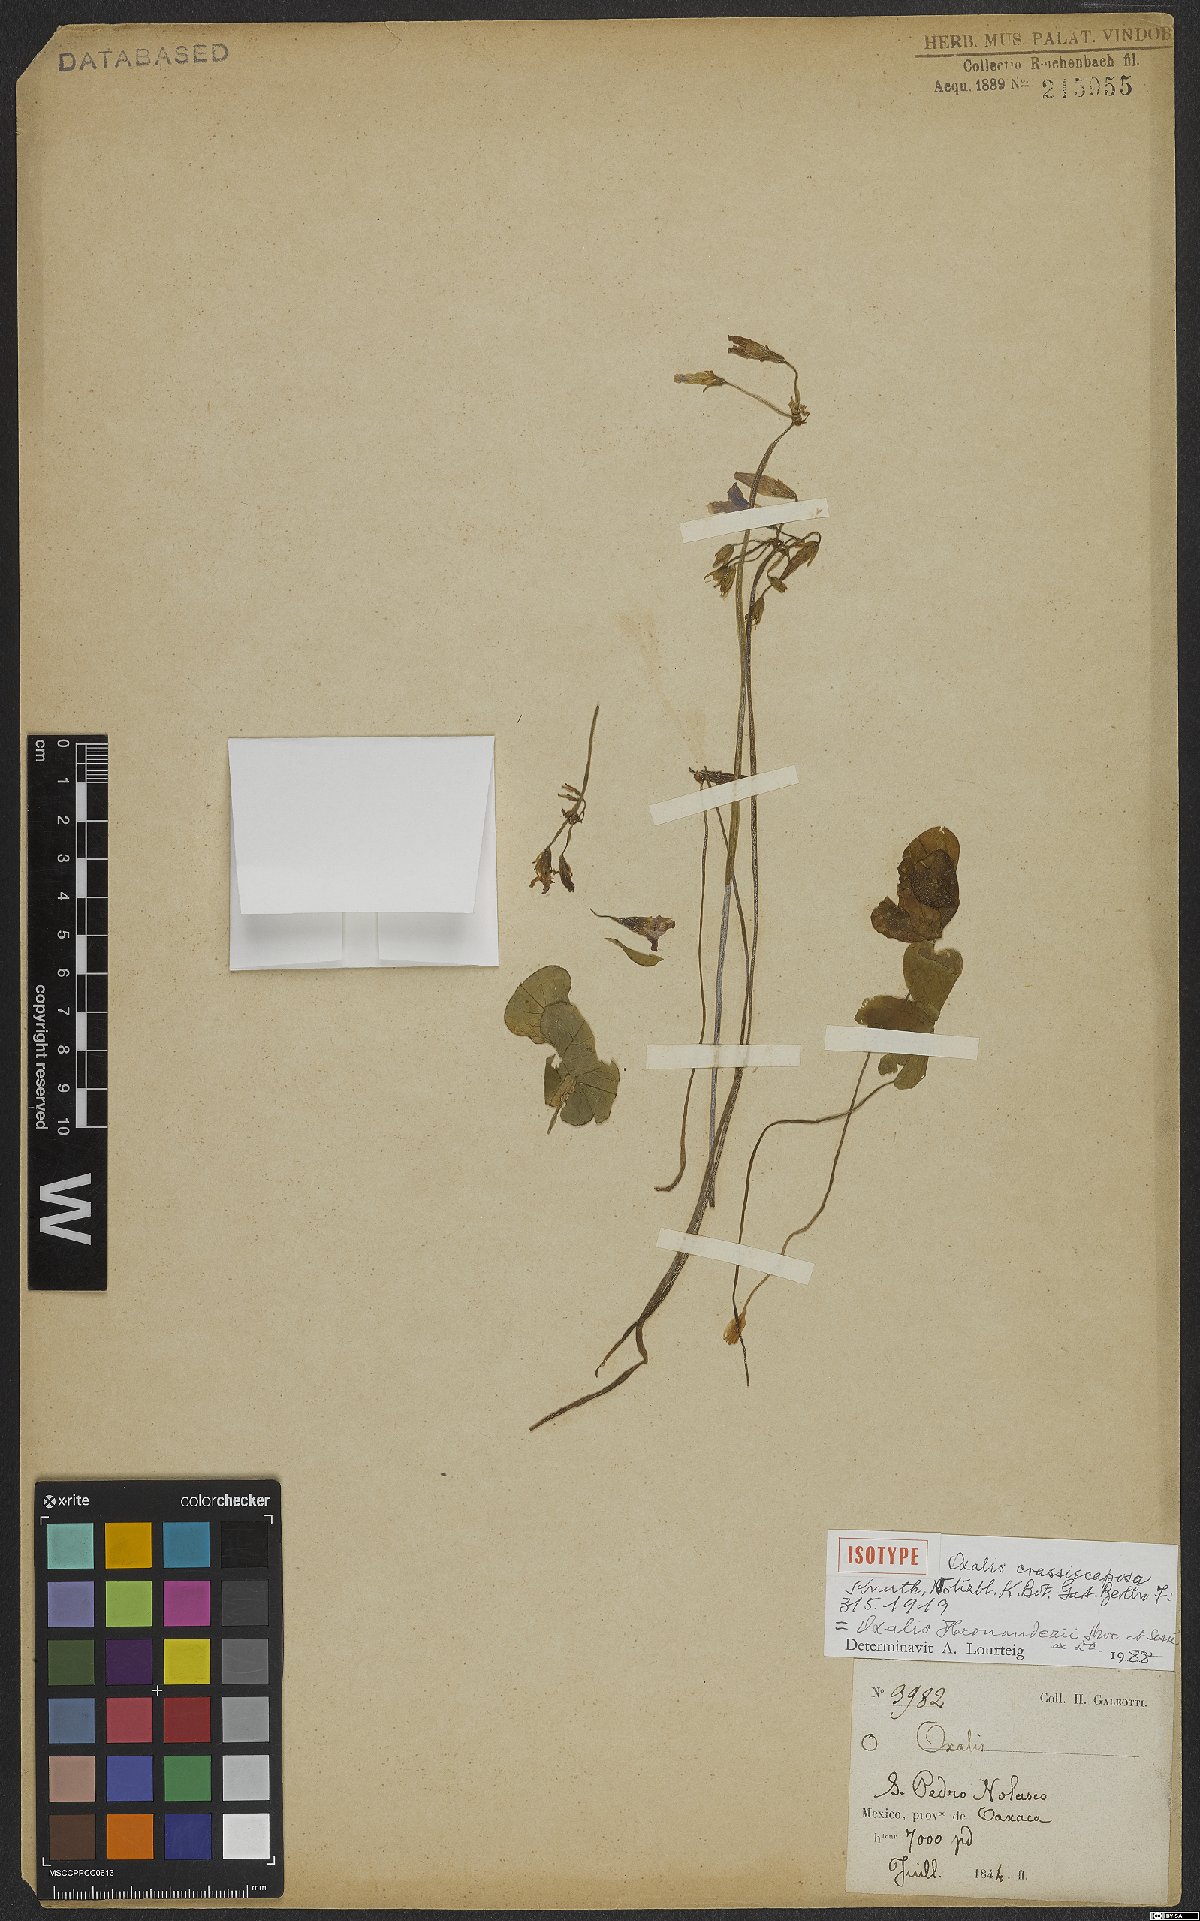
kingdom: Plantae
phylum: Tracheophyta
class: Magnoliopsida
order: Oxalidales
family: Oxalidaceae
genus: Oxalis
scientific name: Oxalis hernandezii
